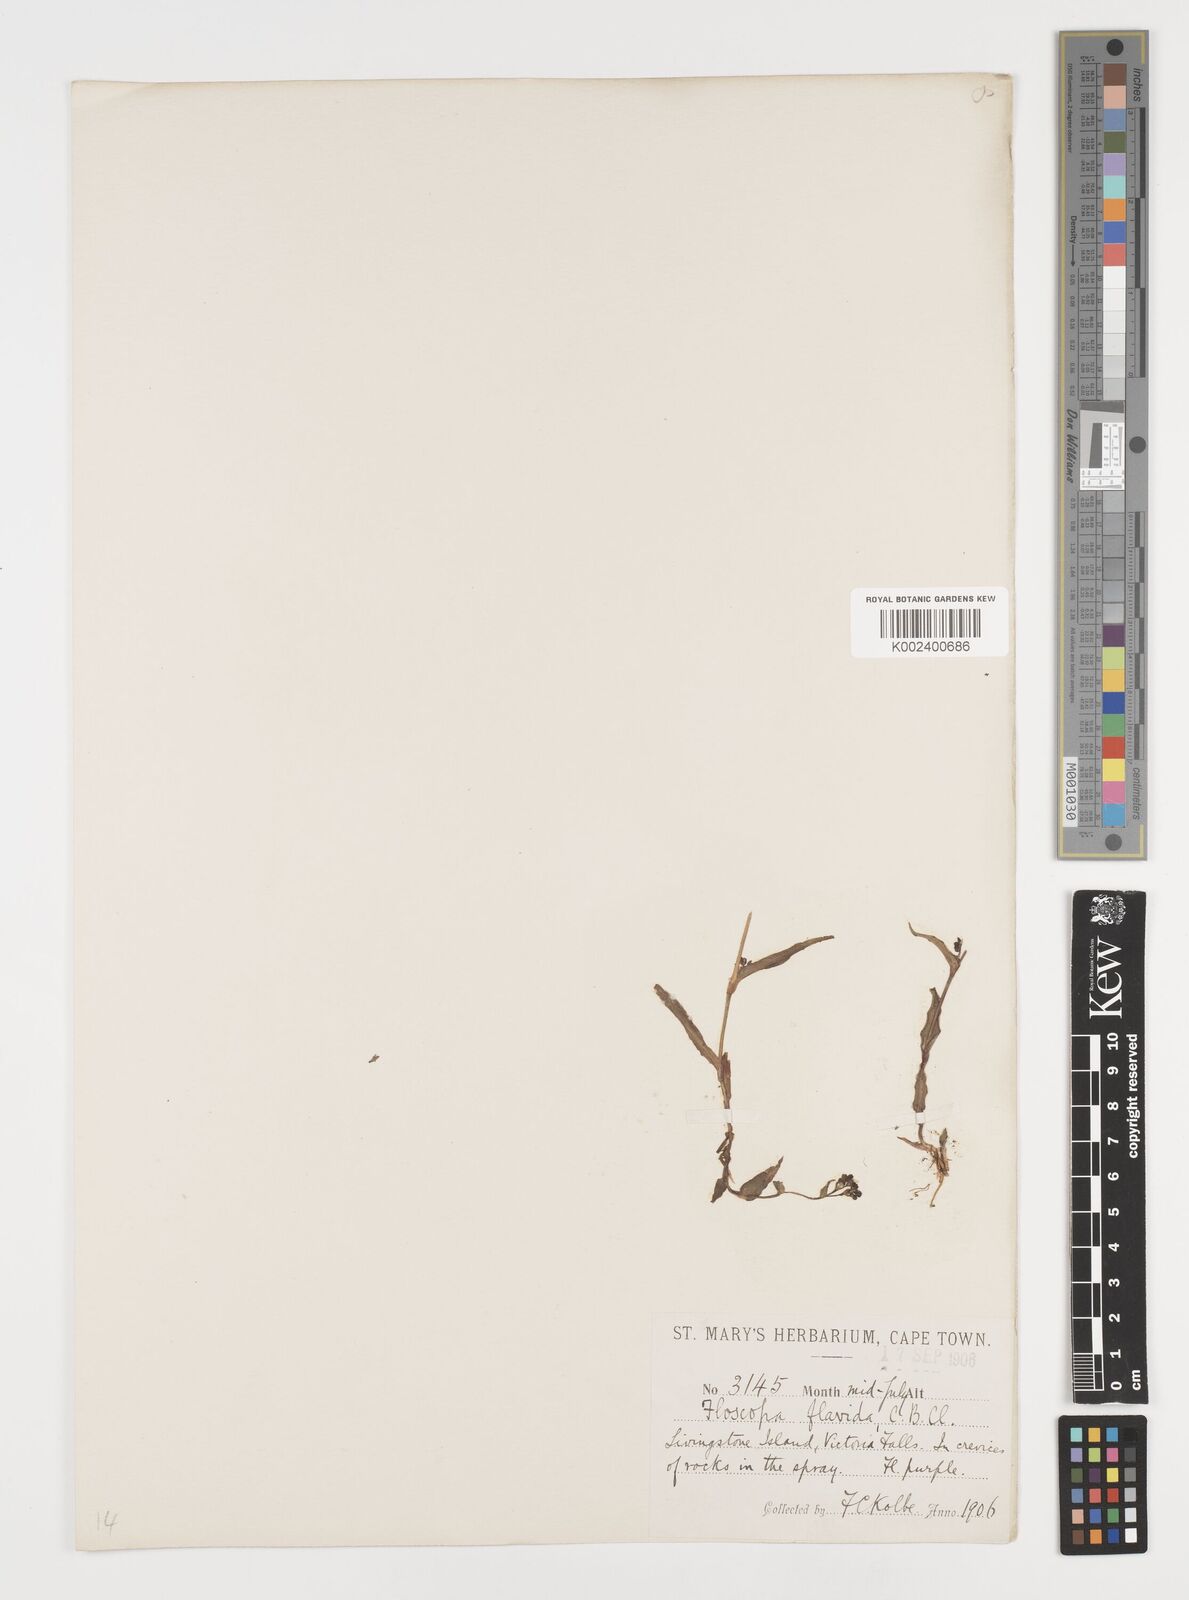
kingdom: Plantae
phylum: Tracheophyta
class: Liliopsida
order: Commelinales
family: Commelinaceae
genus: Floscopa
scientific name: Floscopa rivularioides
